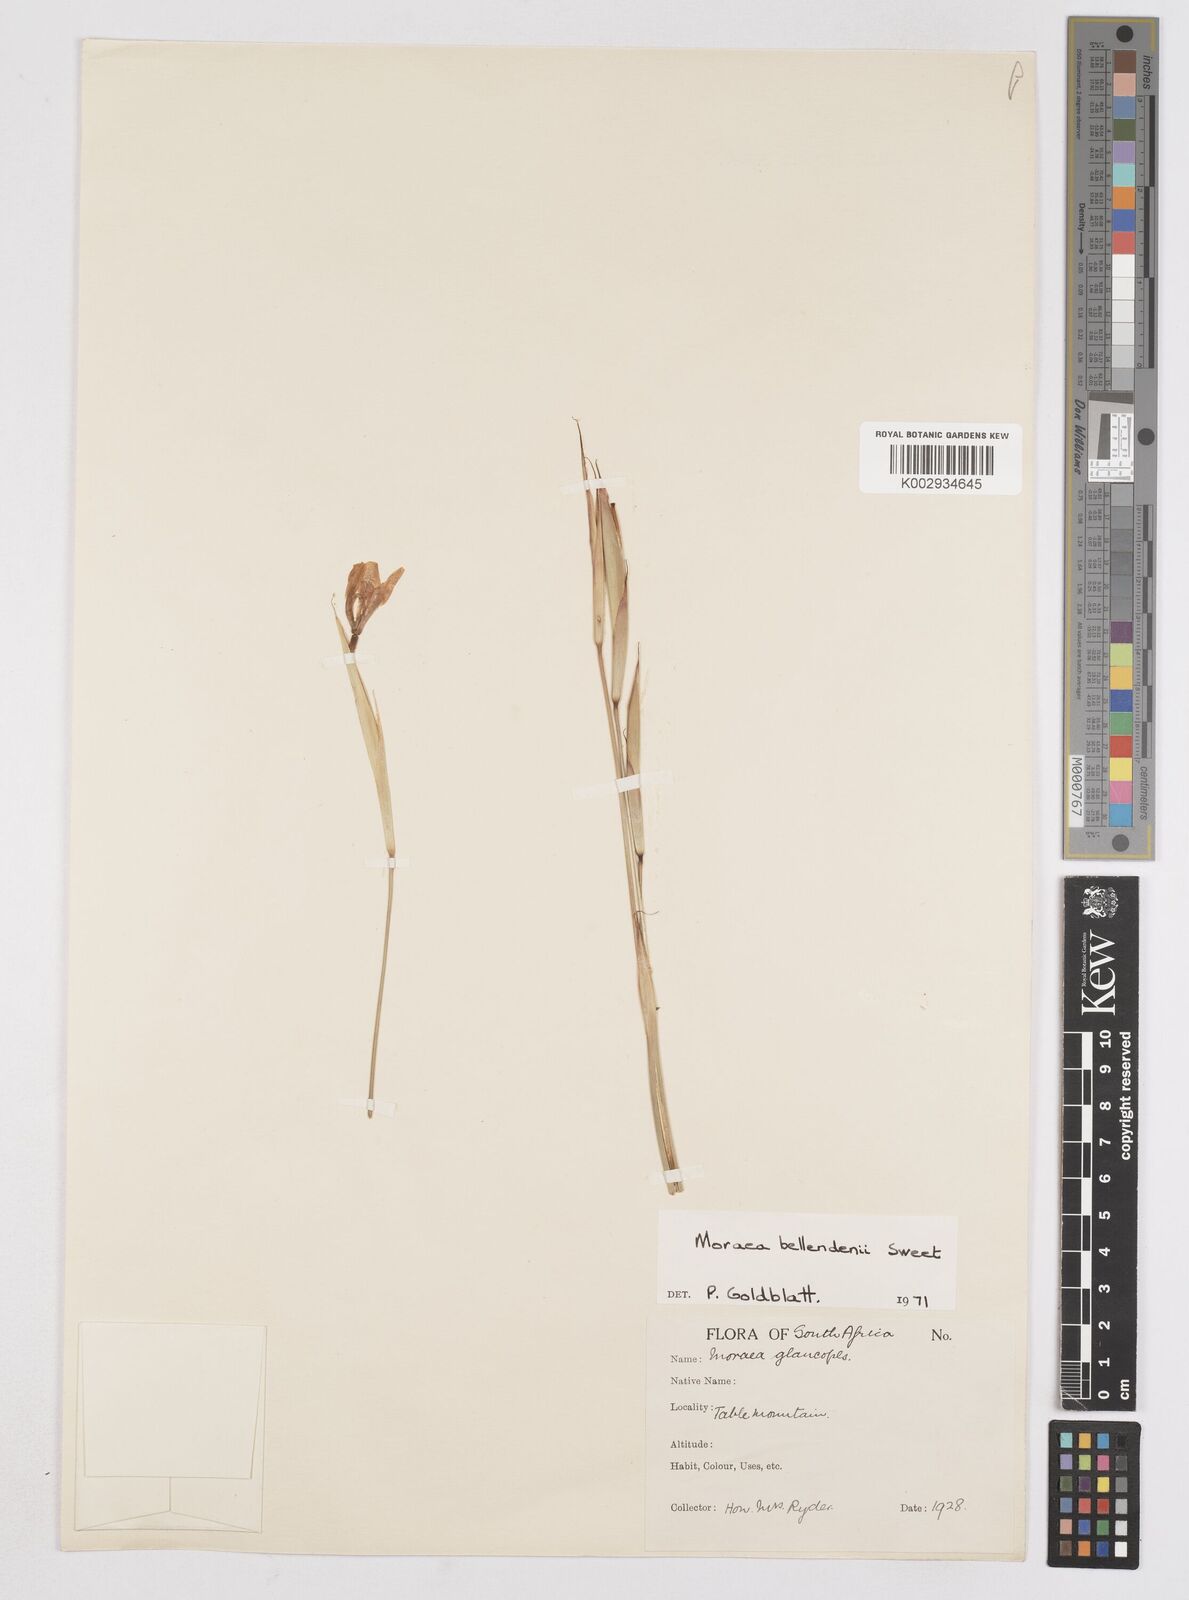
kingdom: Plantae
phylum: Tracheophyta
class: Liliopsida
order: Asparagales
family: Iridaceae
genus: Moraea
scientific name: Moraea bellendenii
